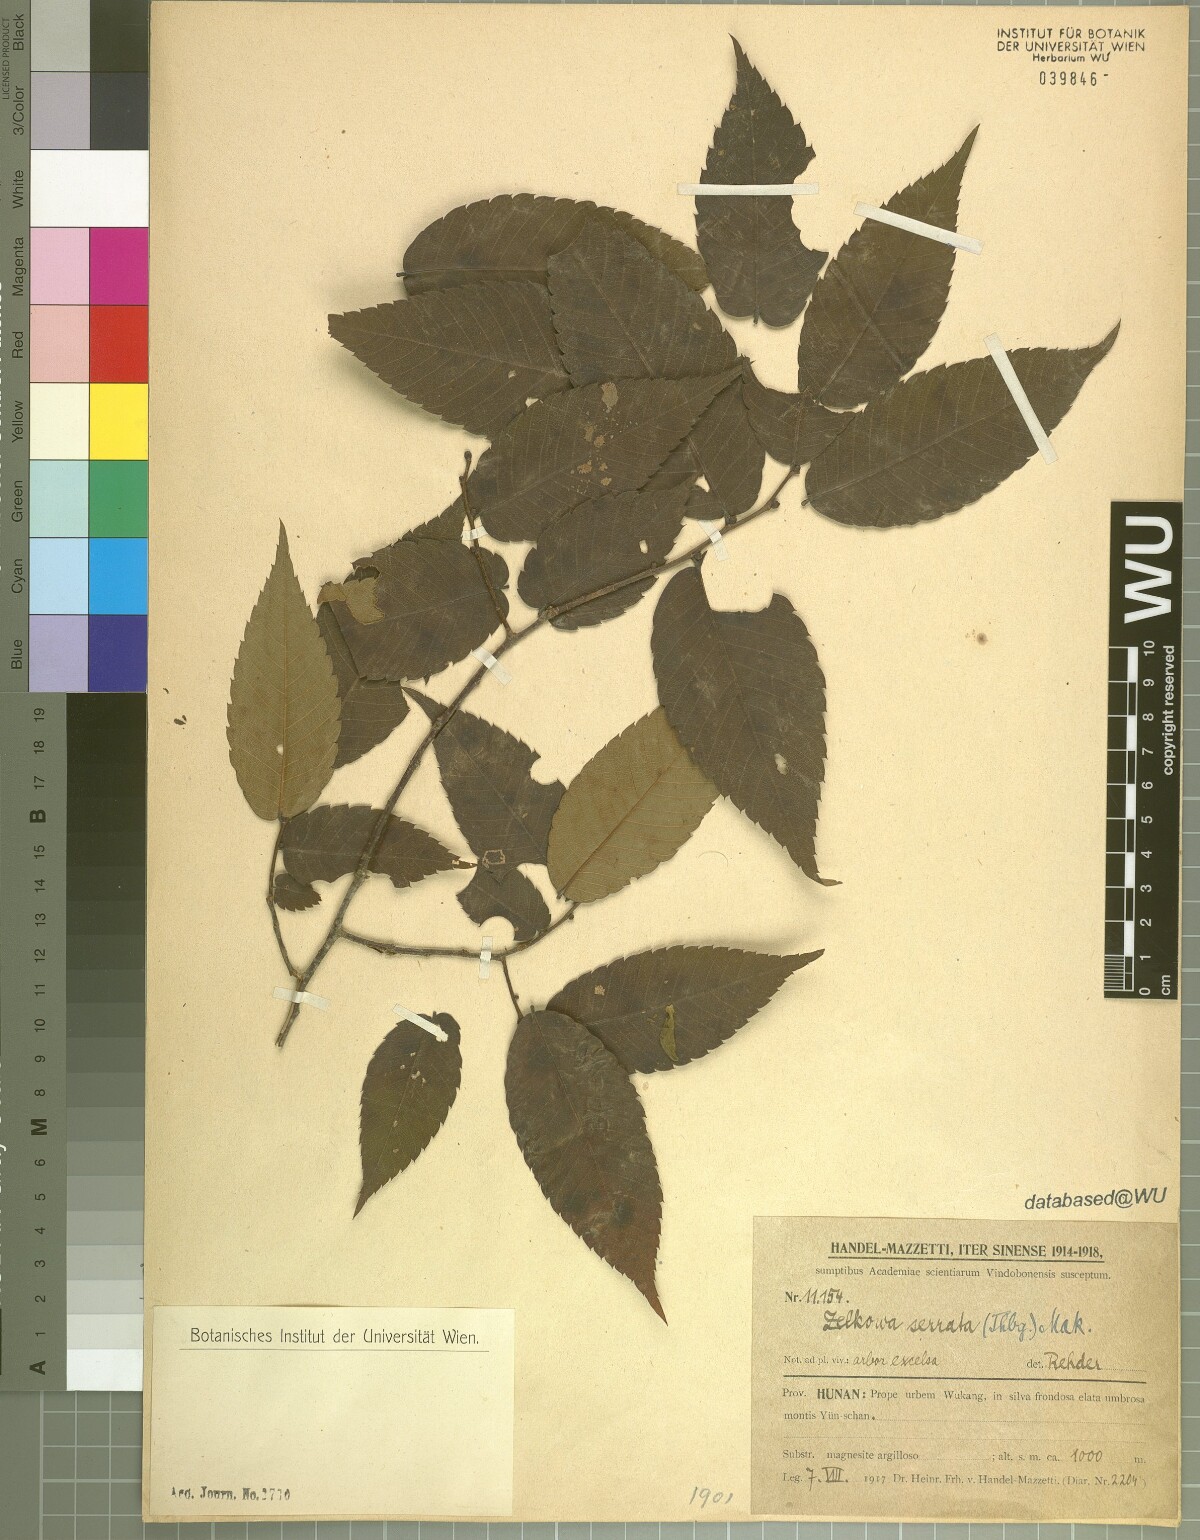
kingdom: Plantae
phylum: Tracheophyta
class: Magnoliopsida
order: Rosales
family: Ulmaceae
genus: Zelkova
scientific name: Zelkova serrata
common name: Japanese zelkova
